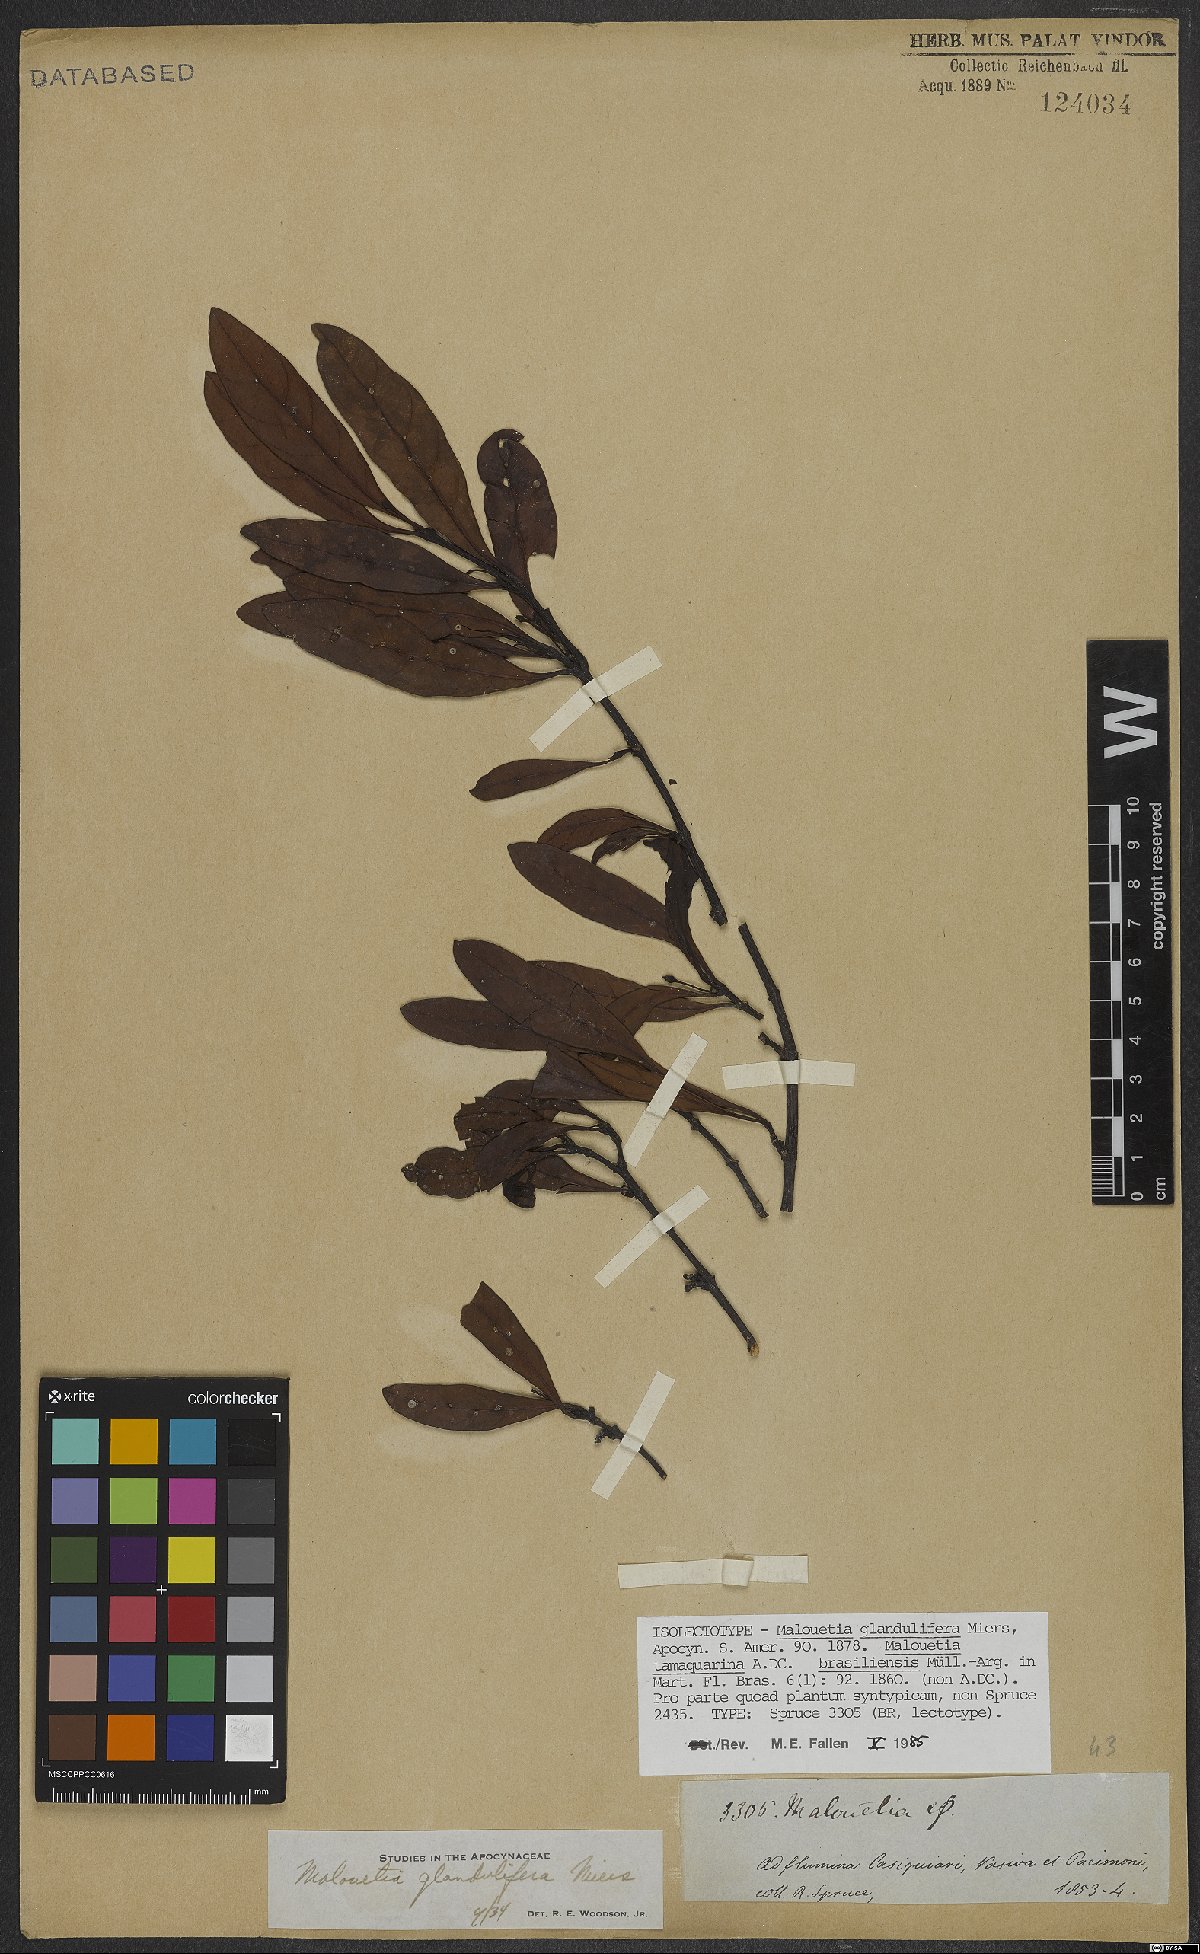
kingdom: Plantae
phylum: Tracheophyta
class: Magnoliopsida
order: Gentianales
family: Apocynaceae
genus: Malouetia
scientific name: Malouetia glandulifera
